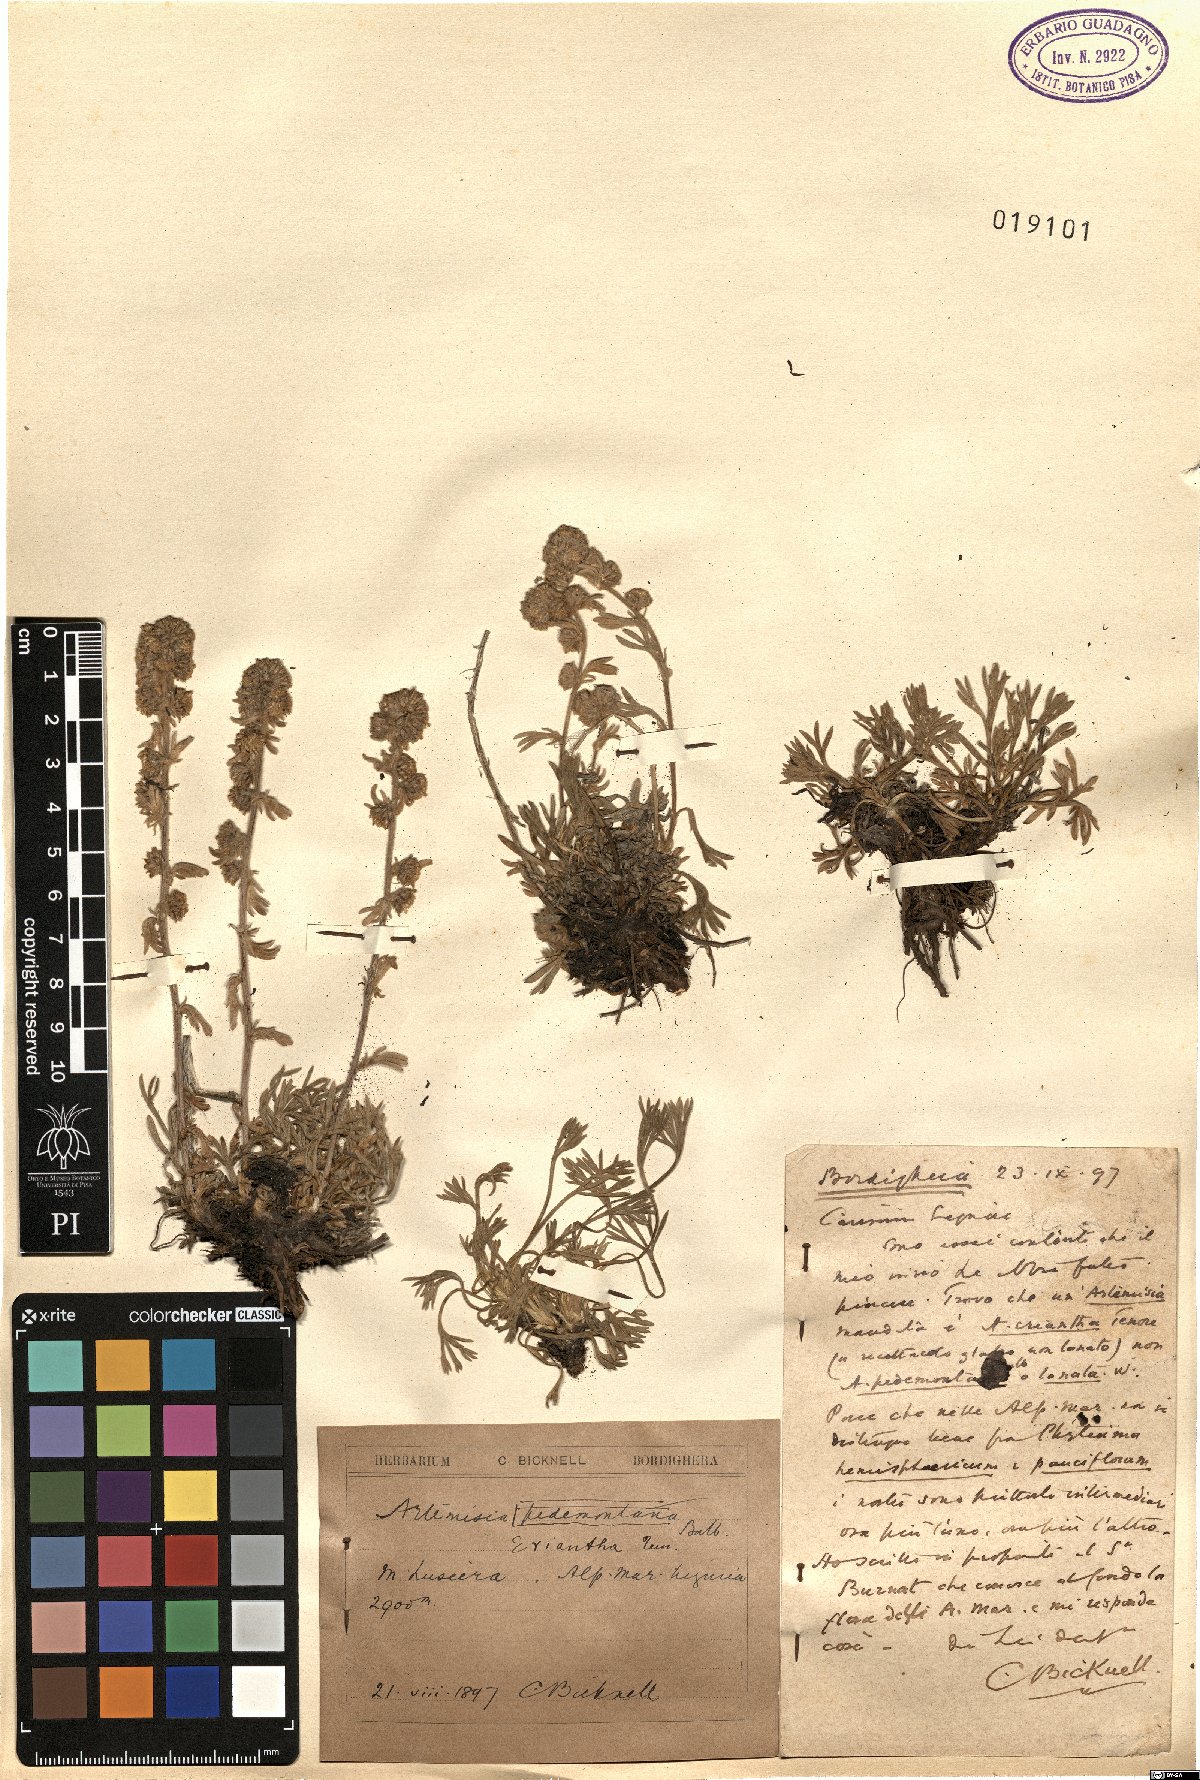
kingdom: Plantae
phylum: Tracheophyta
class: Magnoliopsida
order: Asterales
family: Asteraceae
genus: Artemisia
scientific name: Artemisia eriantha
